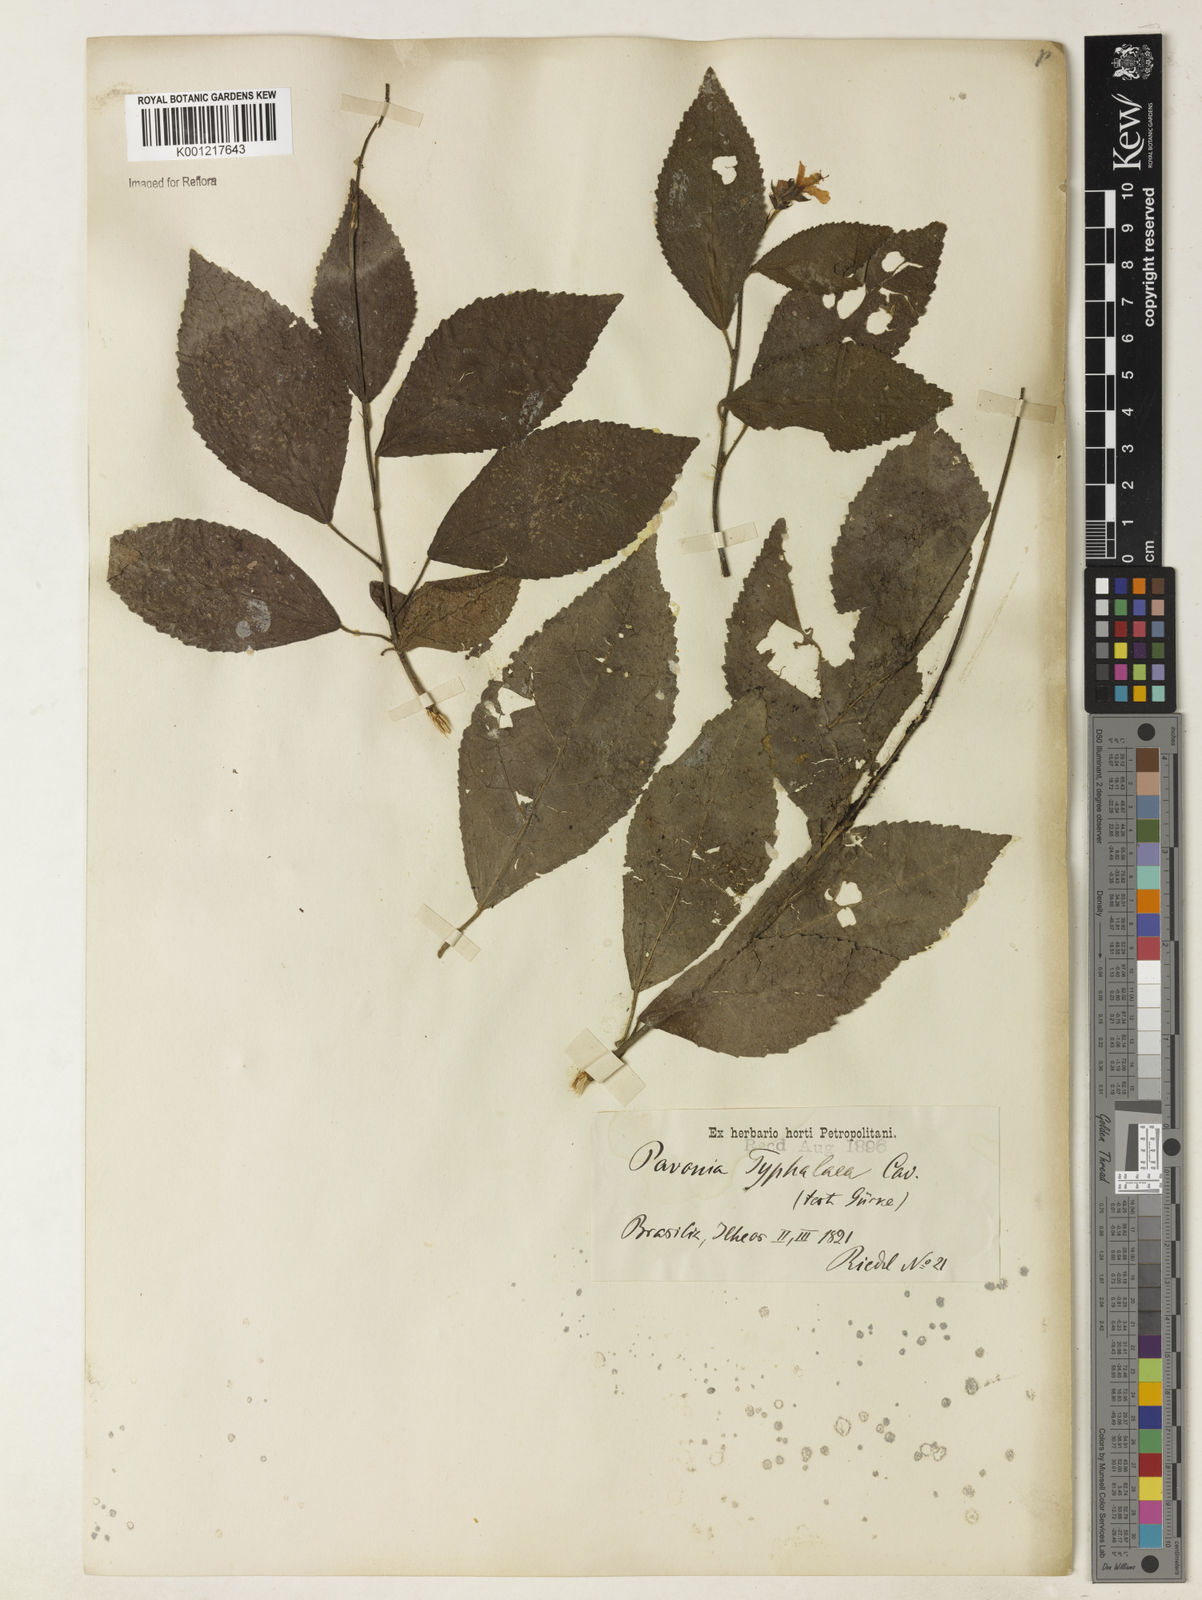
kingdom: Plantae
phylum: Tracheophyta
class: Magnoliopsida
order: Malvales
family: Malvaceae
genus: Pavonia
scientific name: Pavonia castaneifolia
